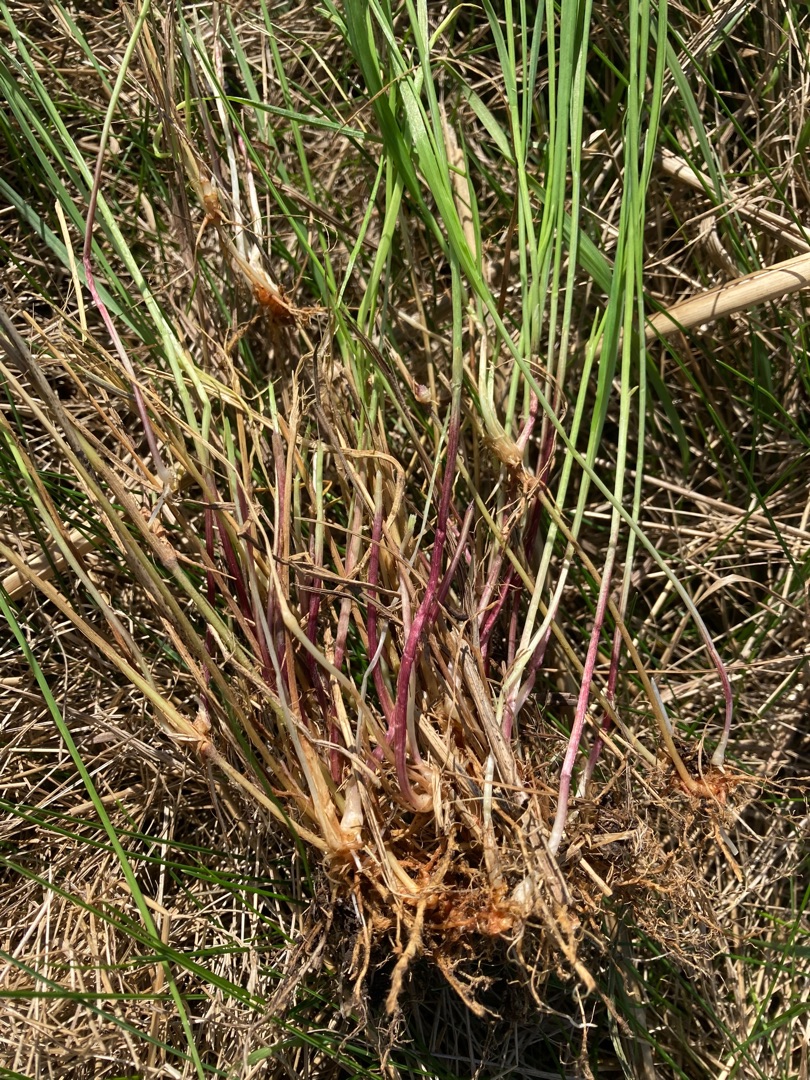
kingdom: Plantae
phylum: Tracheophyta
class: Liliopsida
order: Poales
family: Poaceae
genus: Arrhenatherum
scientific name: Arrhenatherum elatius
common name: Draphavre
